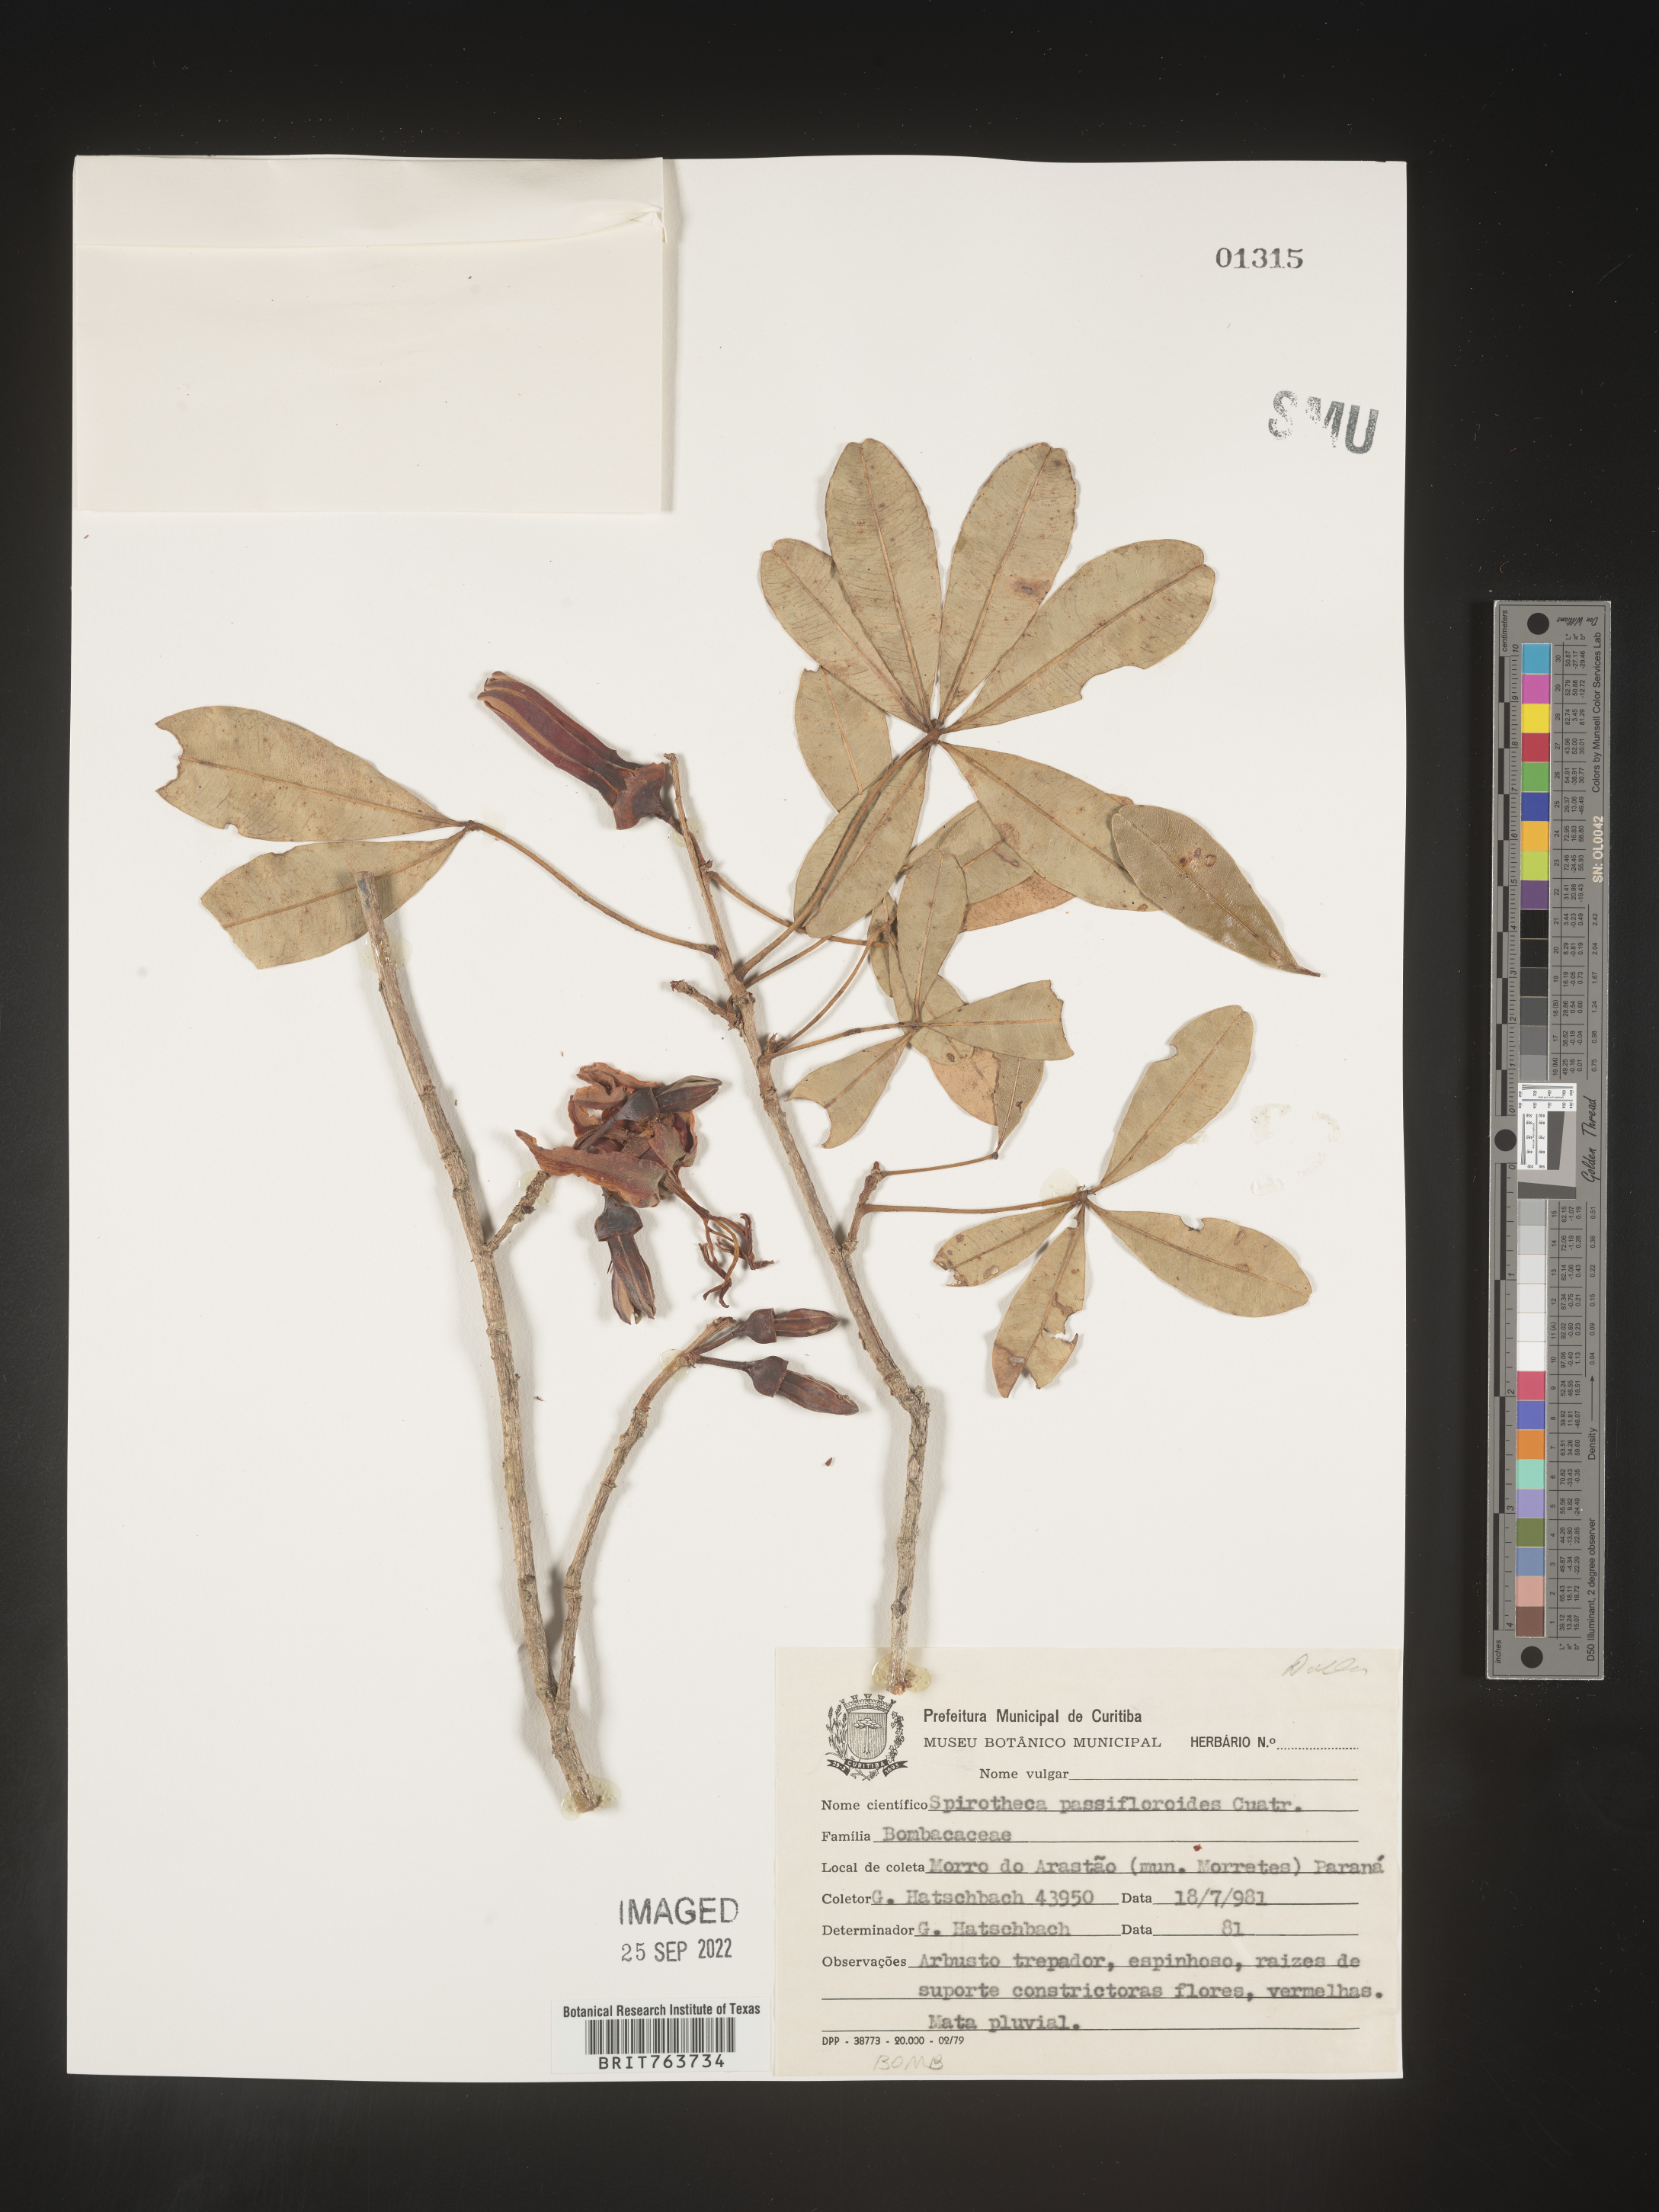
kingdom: Plantae
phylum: Tracheophyta
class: Magnoliopsida
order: Malvales
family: Malvaceae
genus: Ceiba
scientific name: Ceiba
